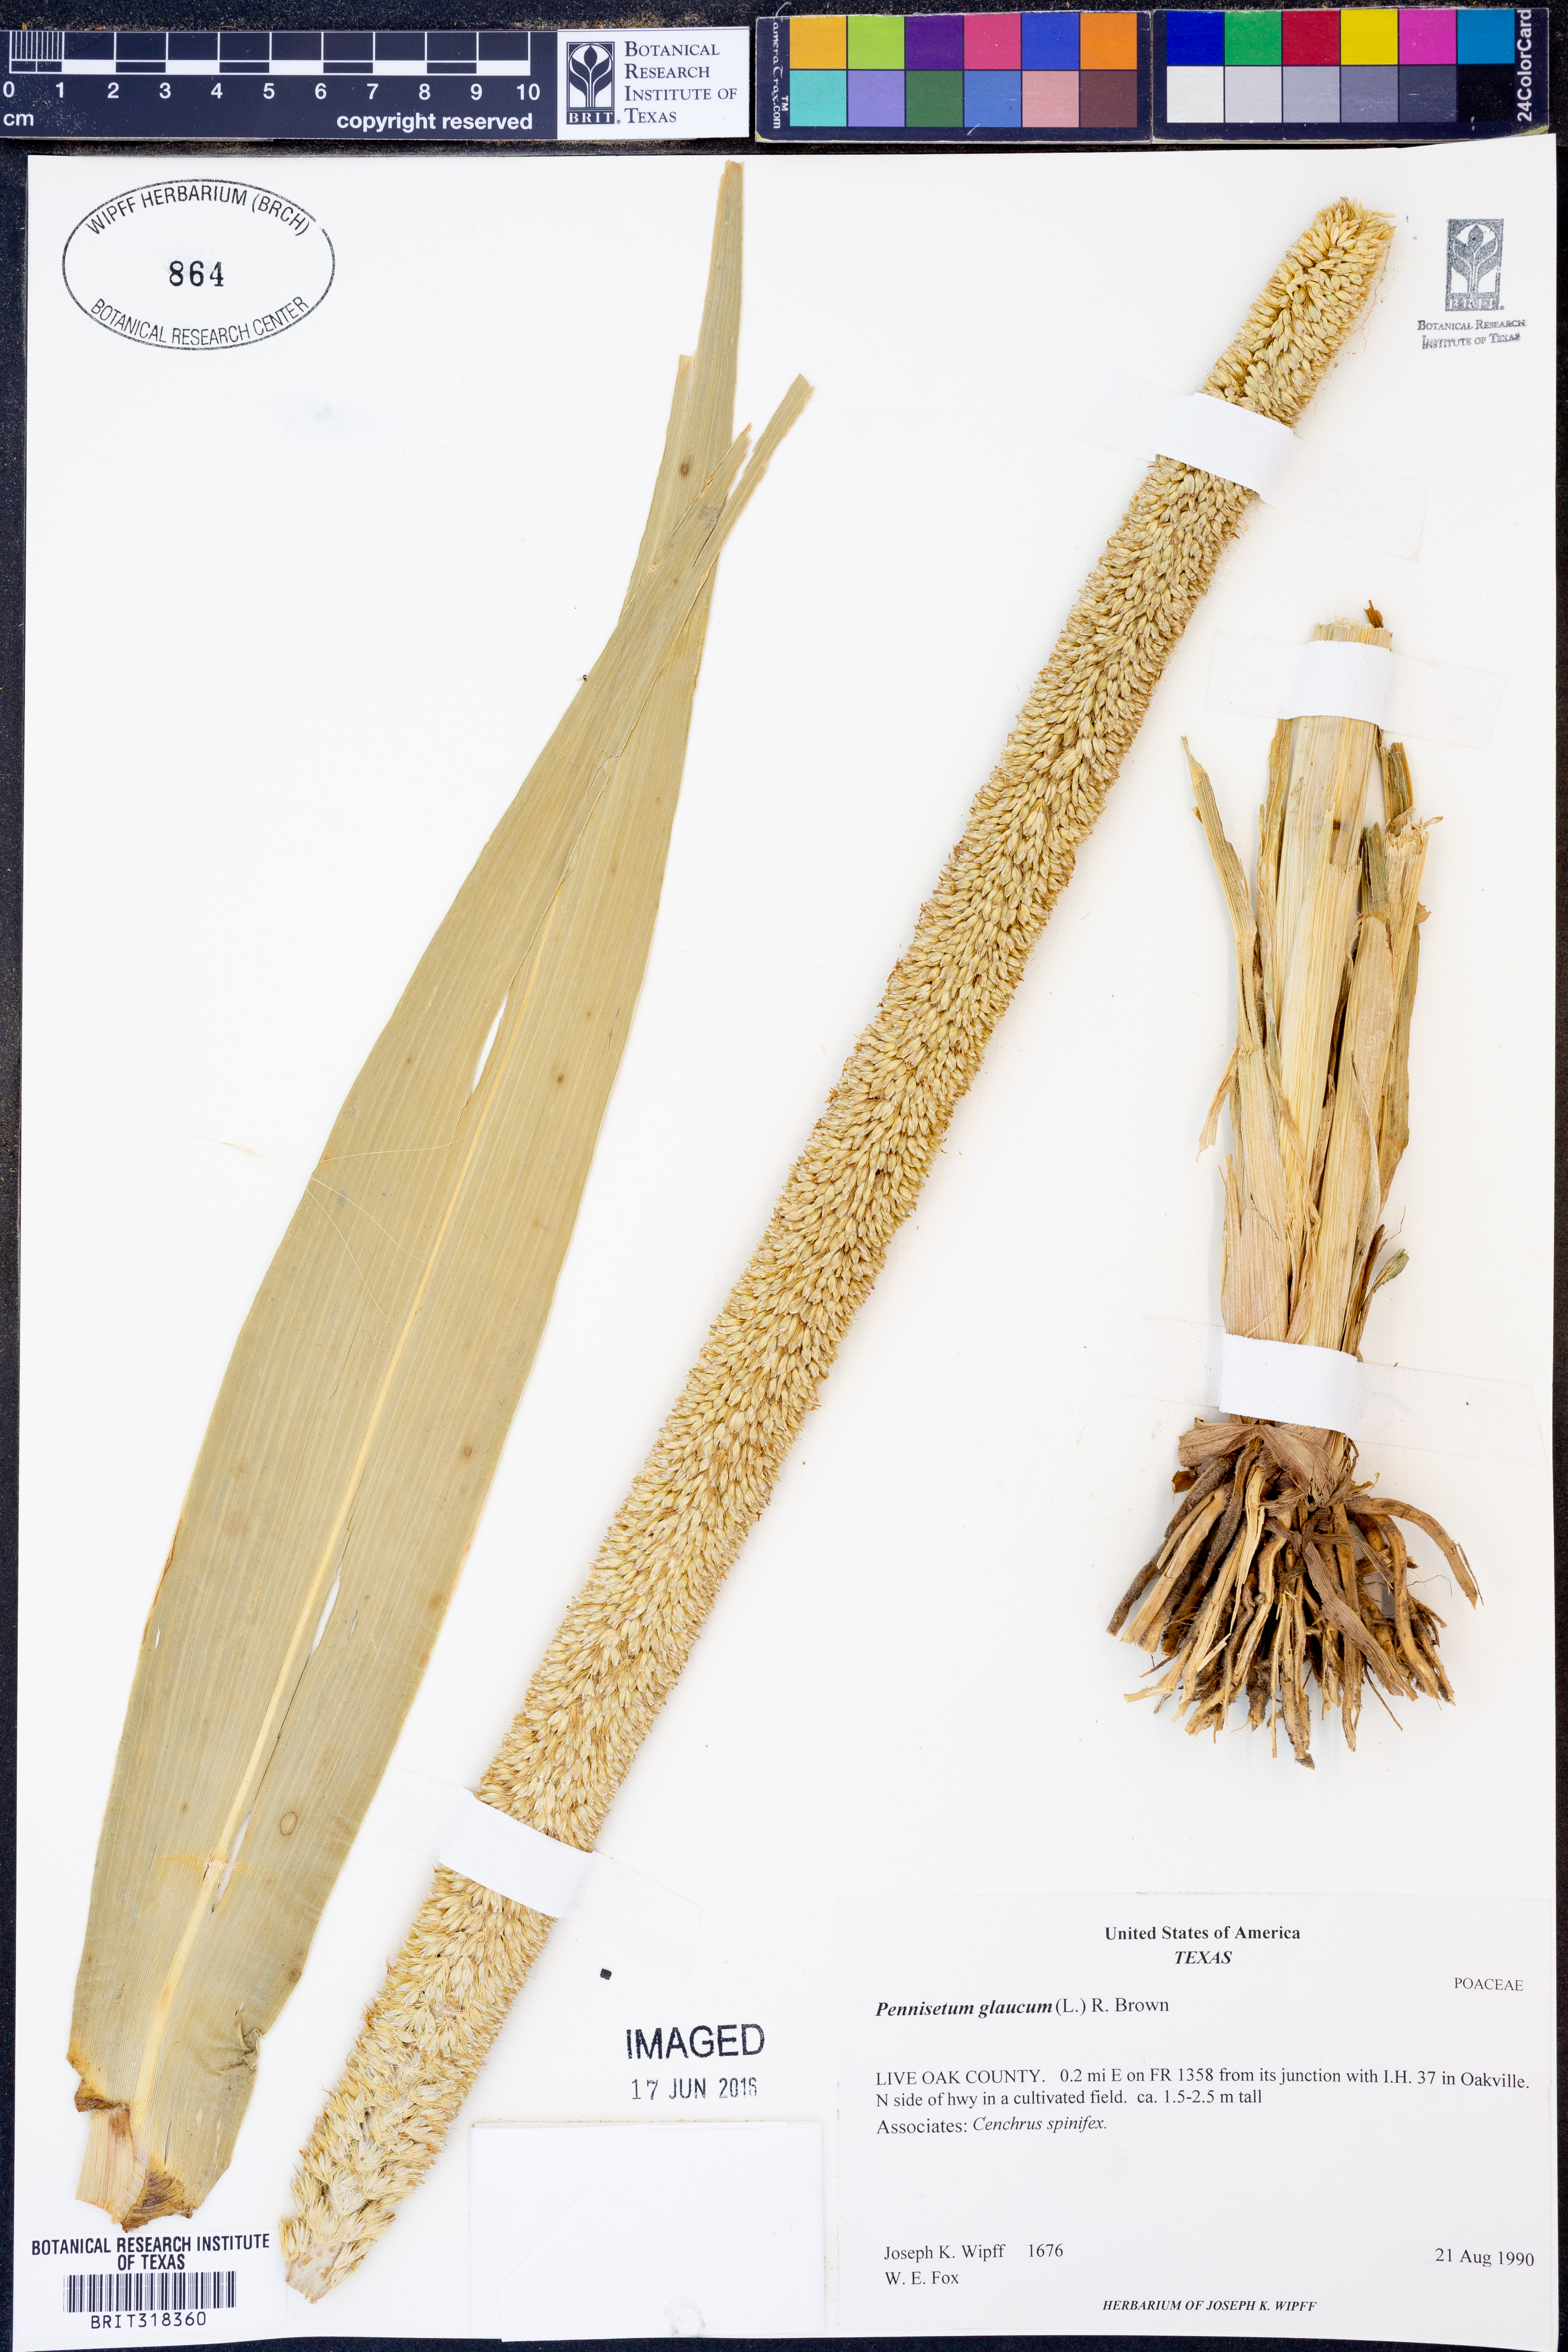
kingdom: Plantae
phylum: Tracheophyta
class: Liliopsida
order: Poales
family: Poaceae
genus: Cenchrus
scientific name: Cenchrus americanus
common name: Pearl millet
